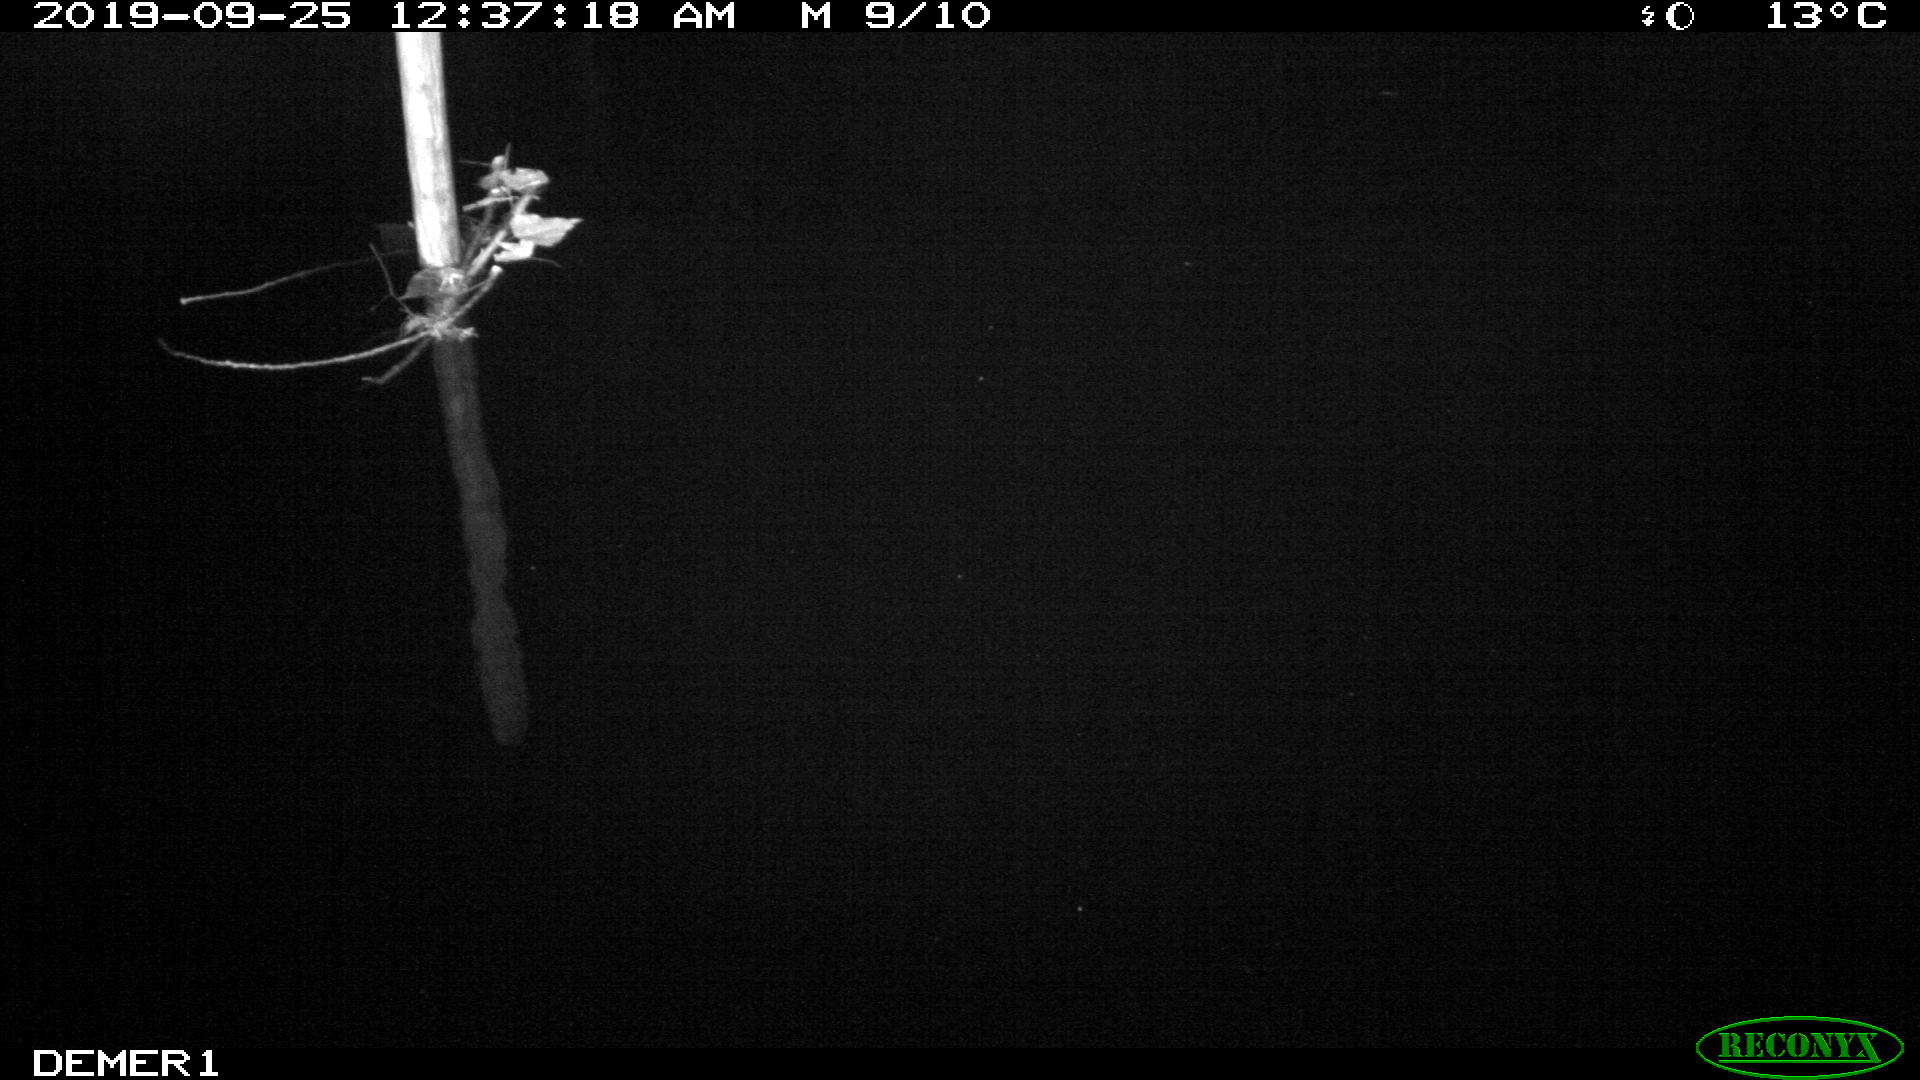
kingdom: Animalia
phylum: Chordata
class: Aves
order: Anseriformes
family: Anatidae
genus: Anas
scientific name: Anas platyrhynchos
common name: Mallard
